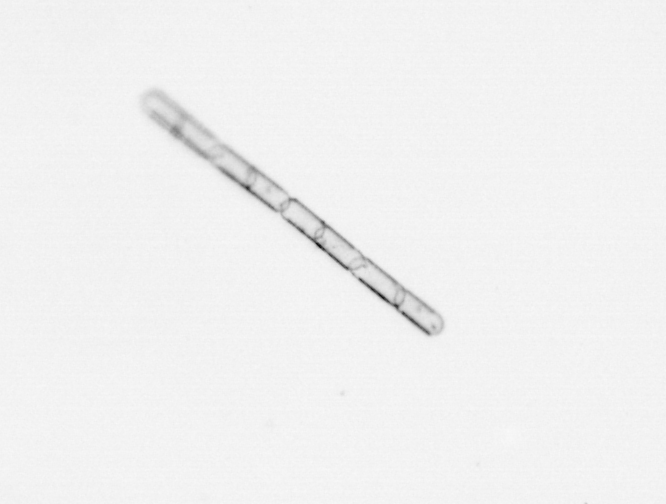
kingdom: Chromista
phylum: Ochrophyta
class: Bacillariophyceae
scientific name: Bacillariophyceae
